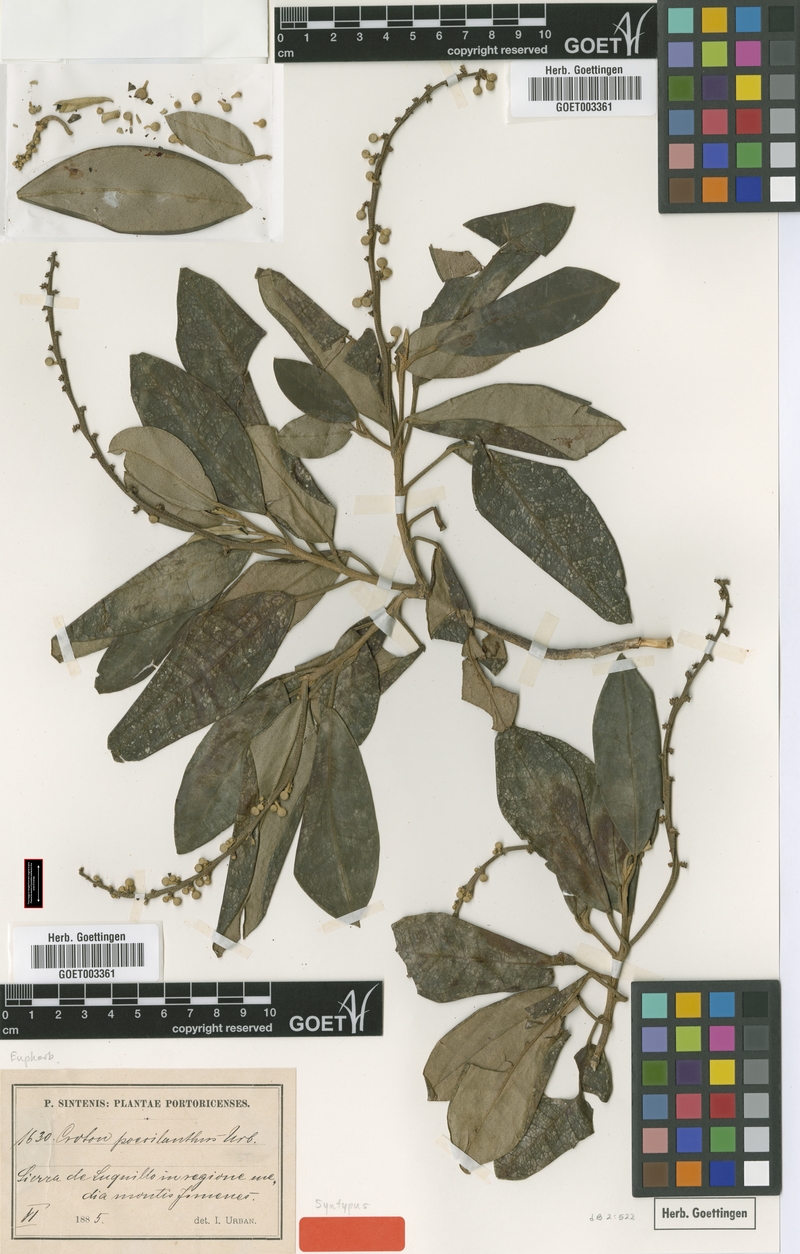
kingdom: Plantae
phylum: Tracheophyta
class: Magnoliopsida
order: Malpighiales
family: Euphorbiaceae
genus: Croton
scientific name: Croton poecilanthus
